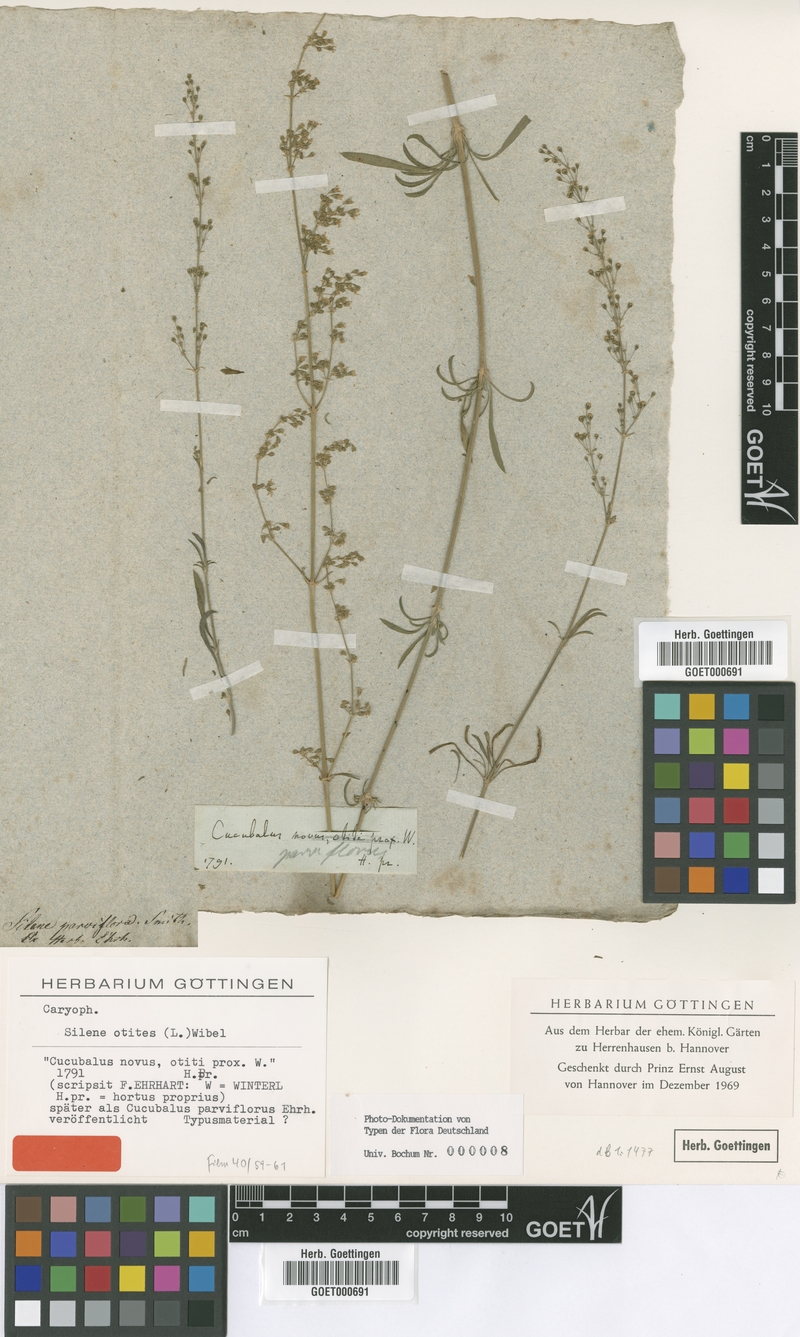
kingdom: Plantae
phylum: Tracheophyta
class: Magnoliopsida
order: Caryophyllales
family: Caryophyllaceae
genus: Silene
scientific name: Silene otites
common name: Spanish catchfly
